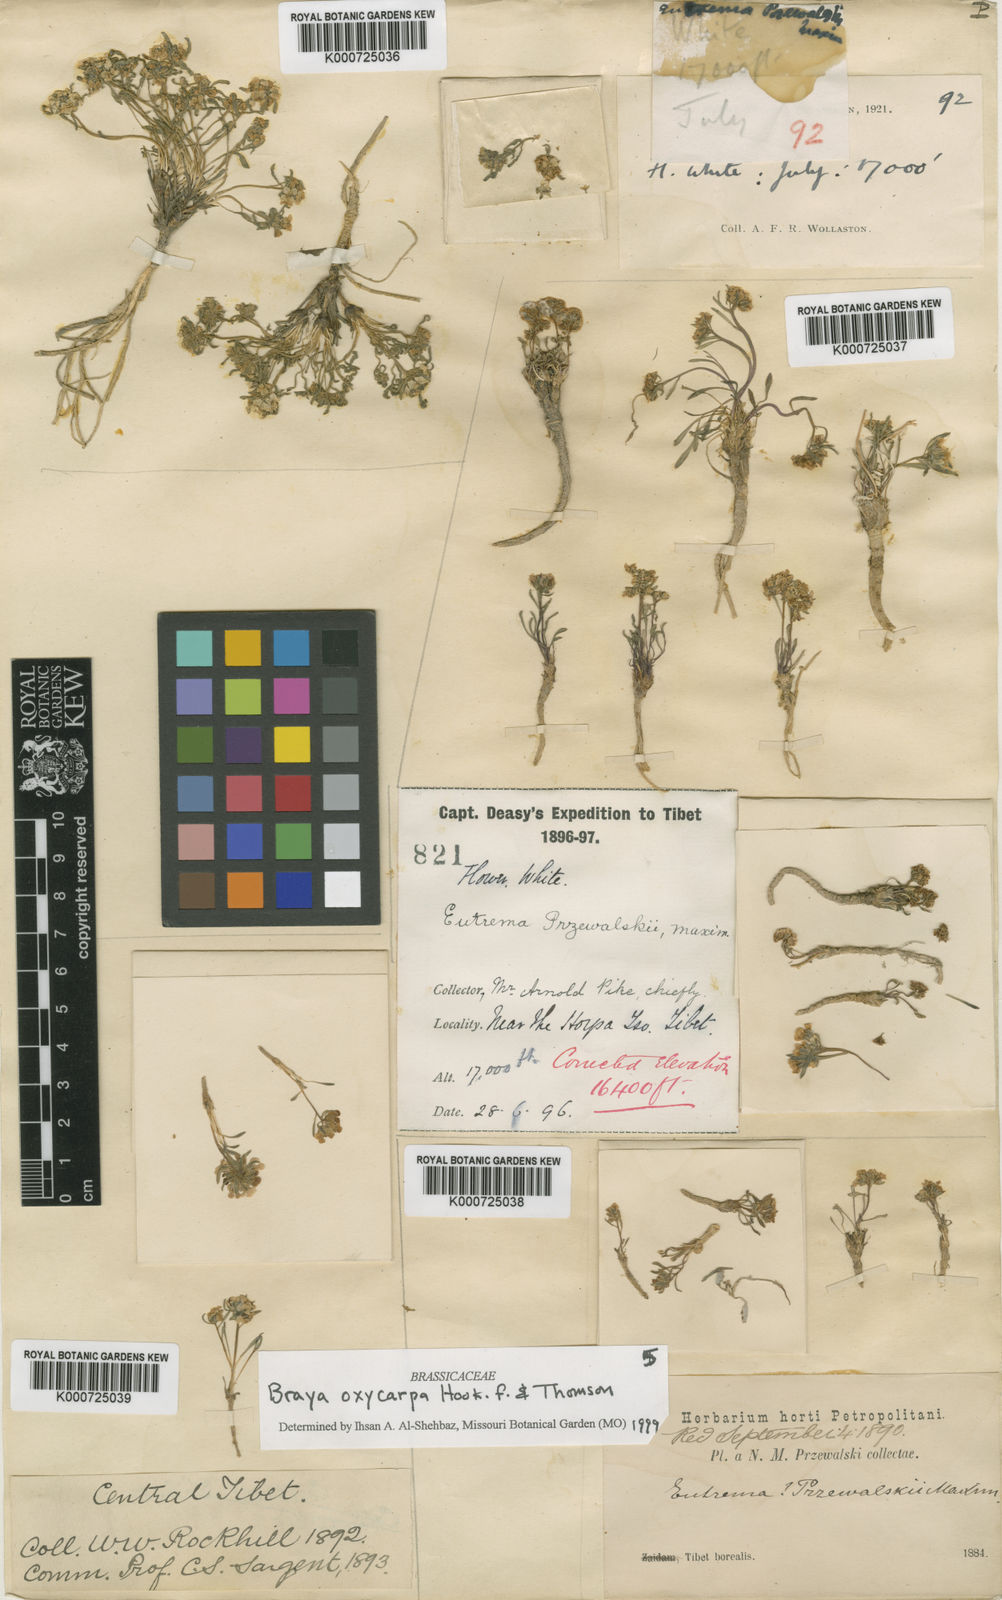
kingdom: Plantae
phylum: Tracheophyta
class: Magnoliopsida
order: Brassicales
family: Brassicaceae
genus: Aphragmus
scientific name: Aphragmus oxycarpus
